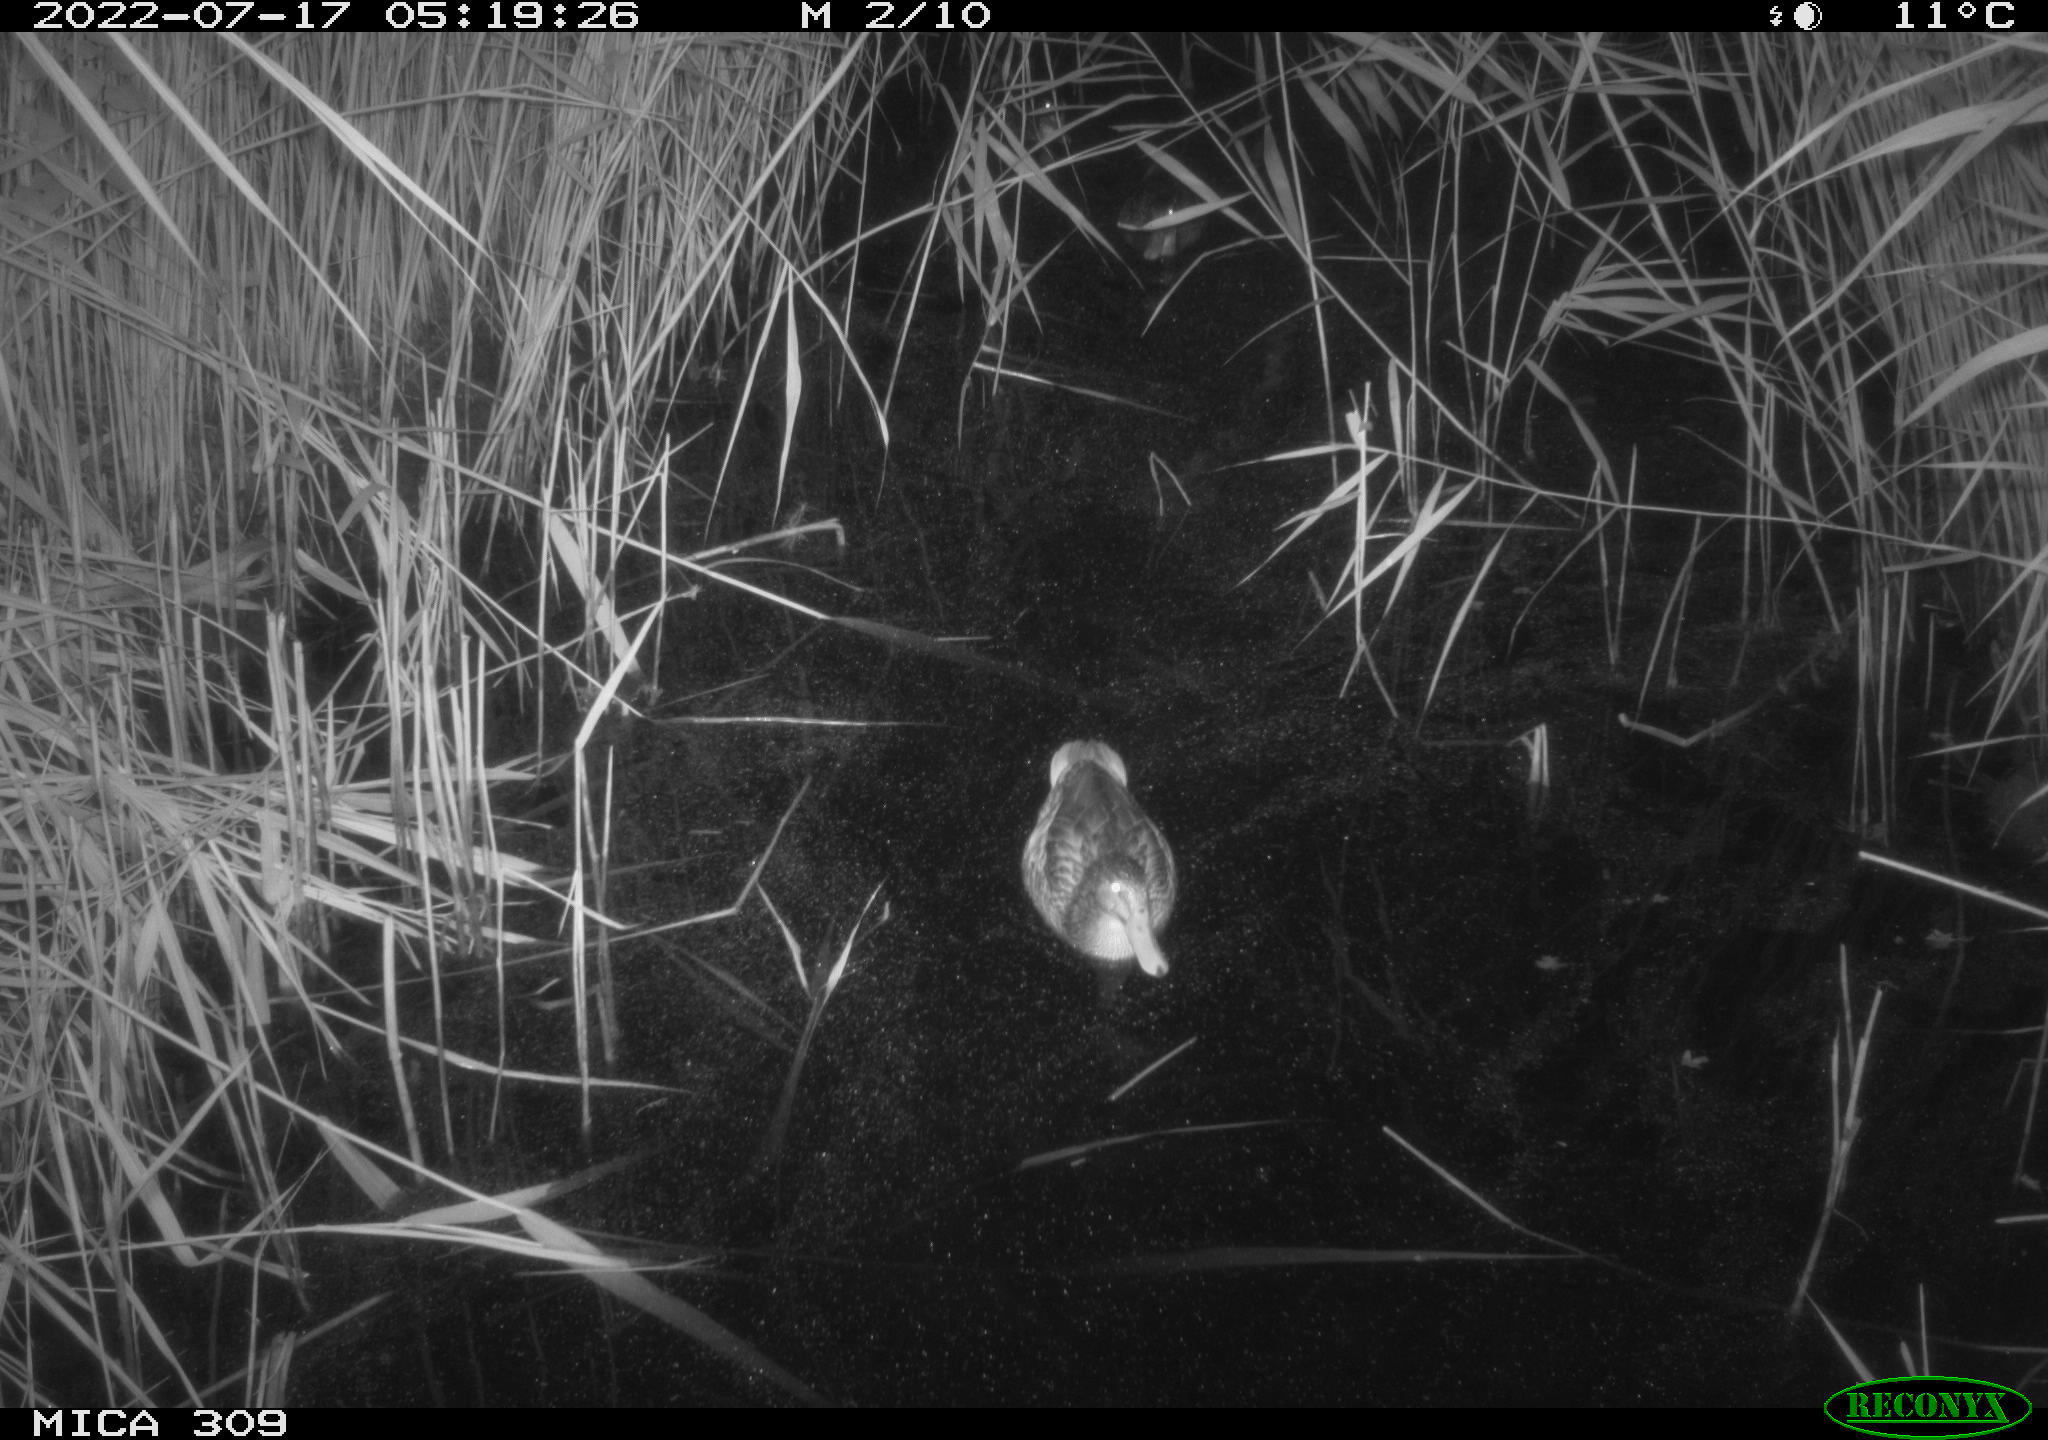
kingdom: Animalia
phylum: Chordata
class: Aves
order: Anseriformes
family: Anatidae
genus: Anas
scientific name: Anas platyrhynchos
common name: Mallard
